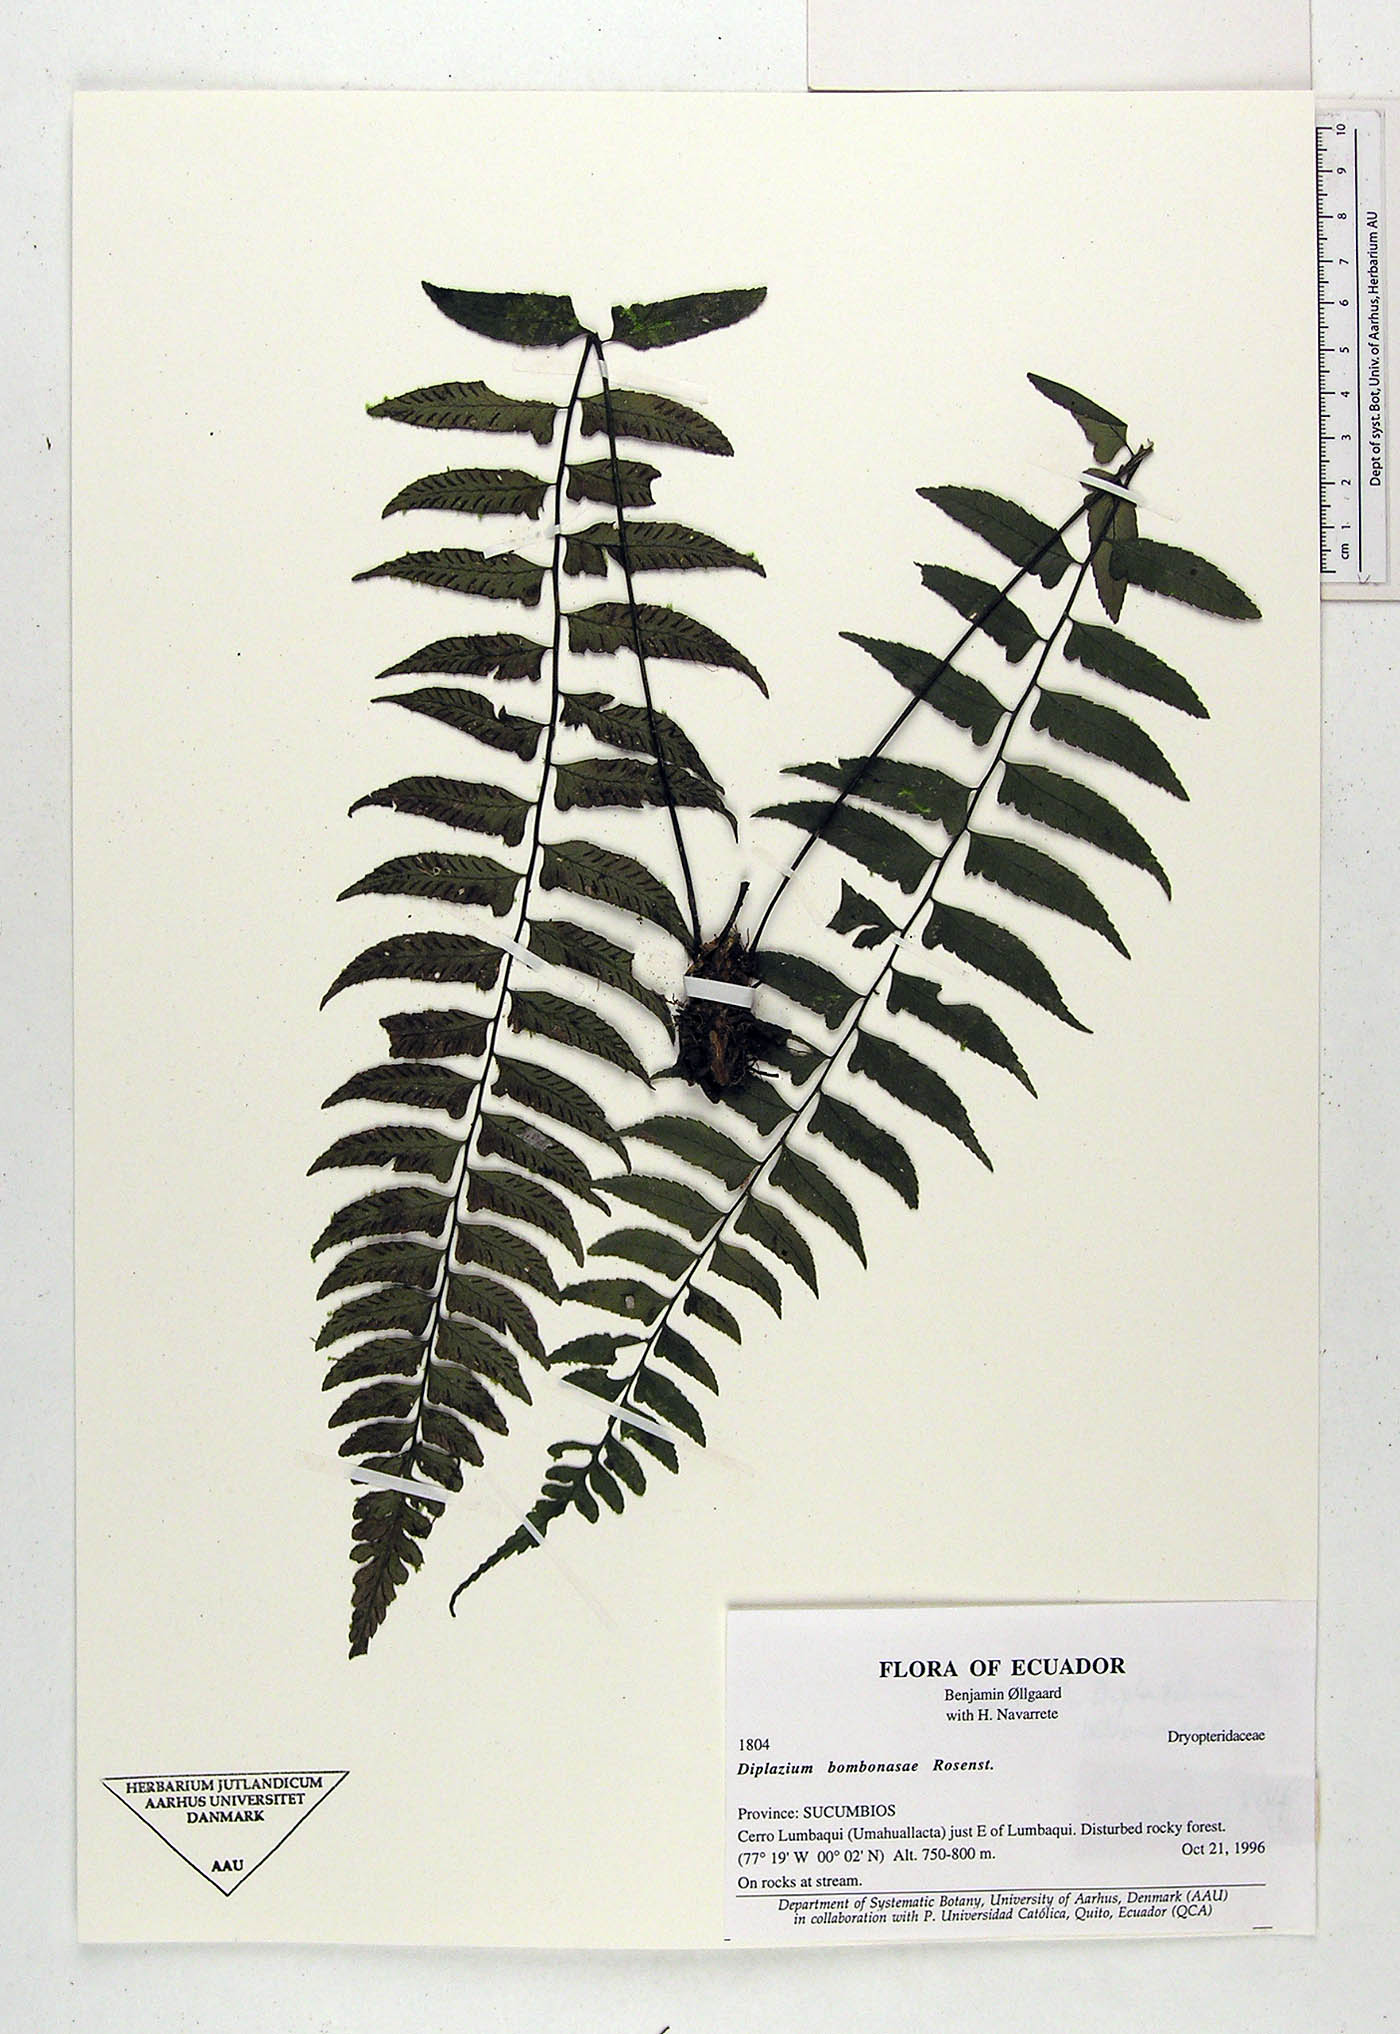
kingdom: Plantae
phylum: Tracheophyta
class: Polypodiopsida
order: Polypodiales
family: Athyriaceae
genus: Diplazium
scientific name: Diplazium bombonasae
